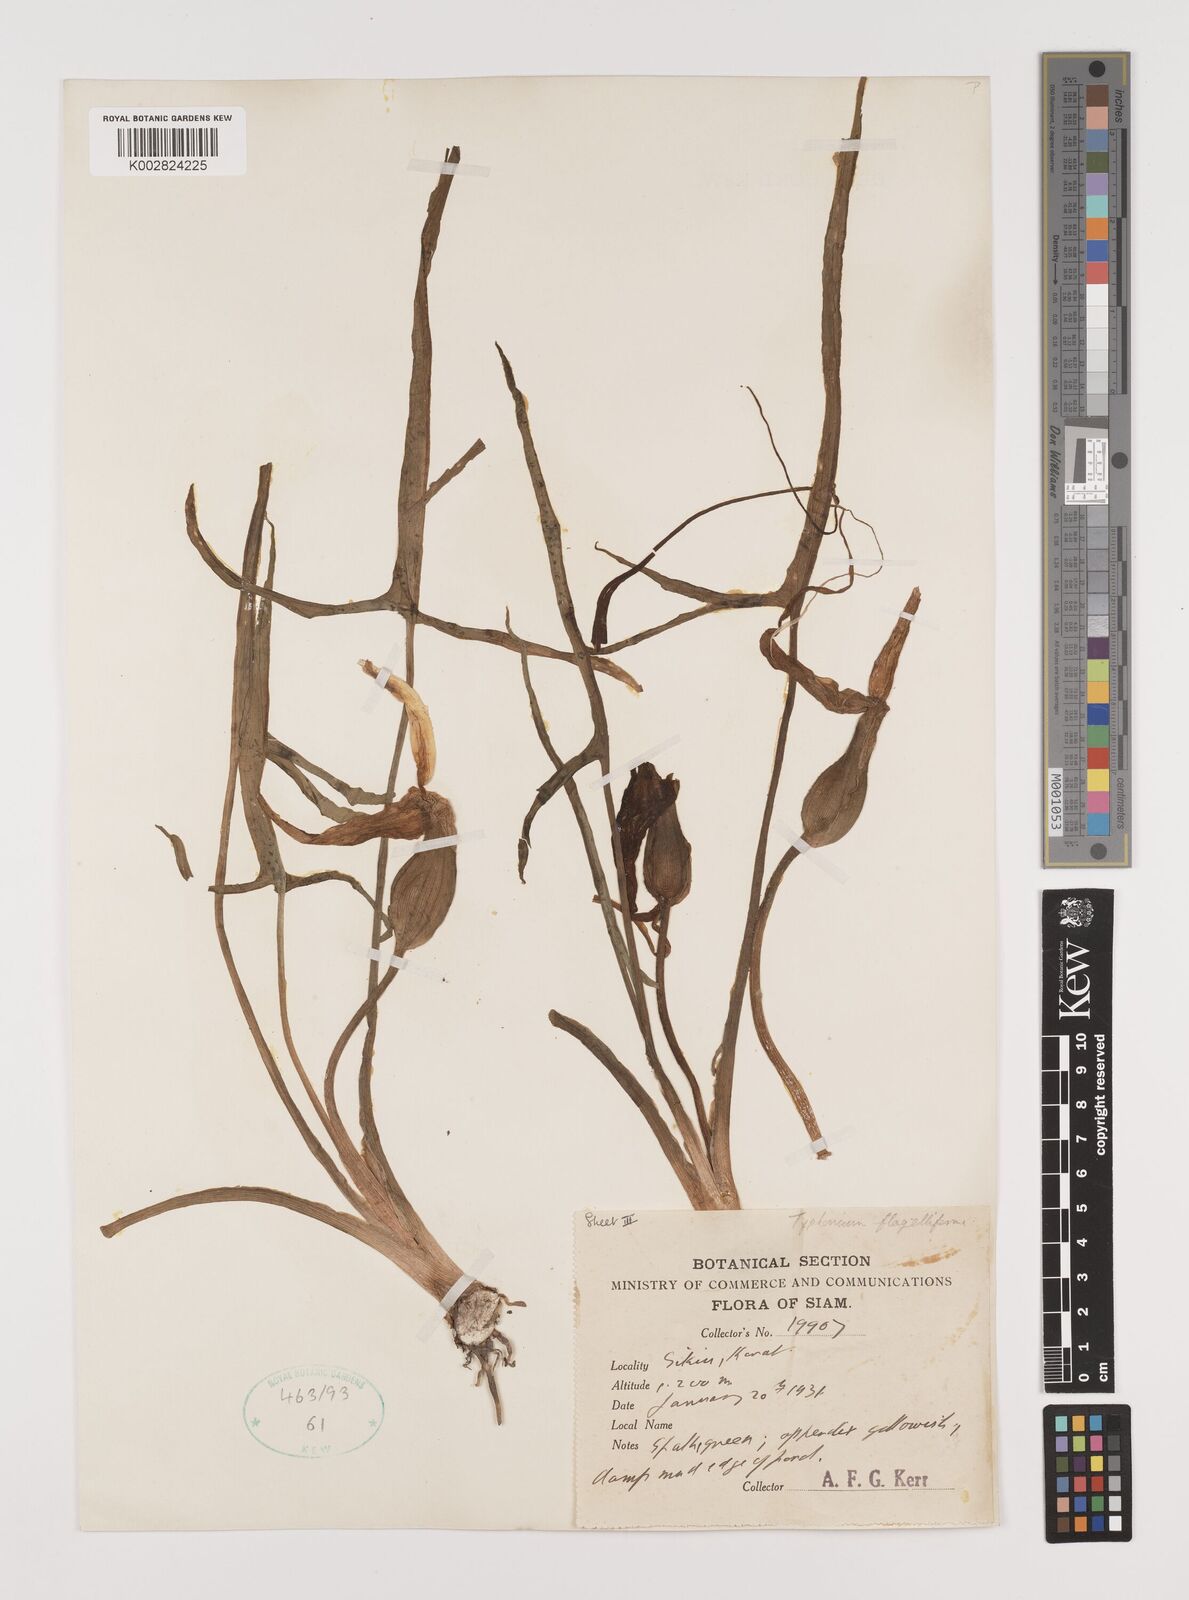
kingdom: Plantae
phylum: Tracheophyta
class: Liliopsida
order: Alismatales
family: Araceae
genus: Typhonium
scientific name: Typhonium flagelliforme
